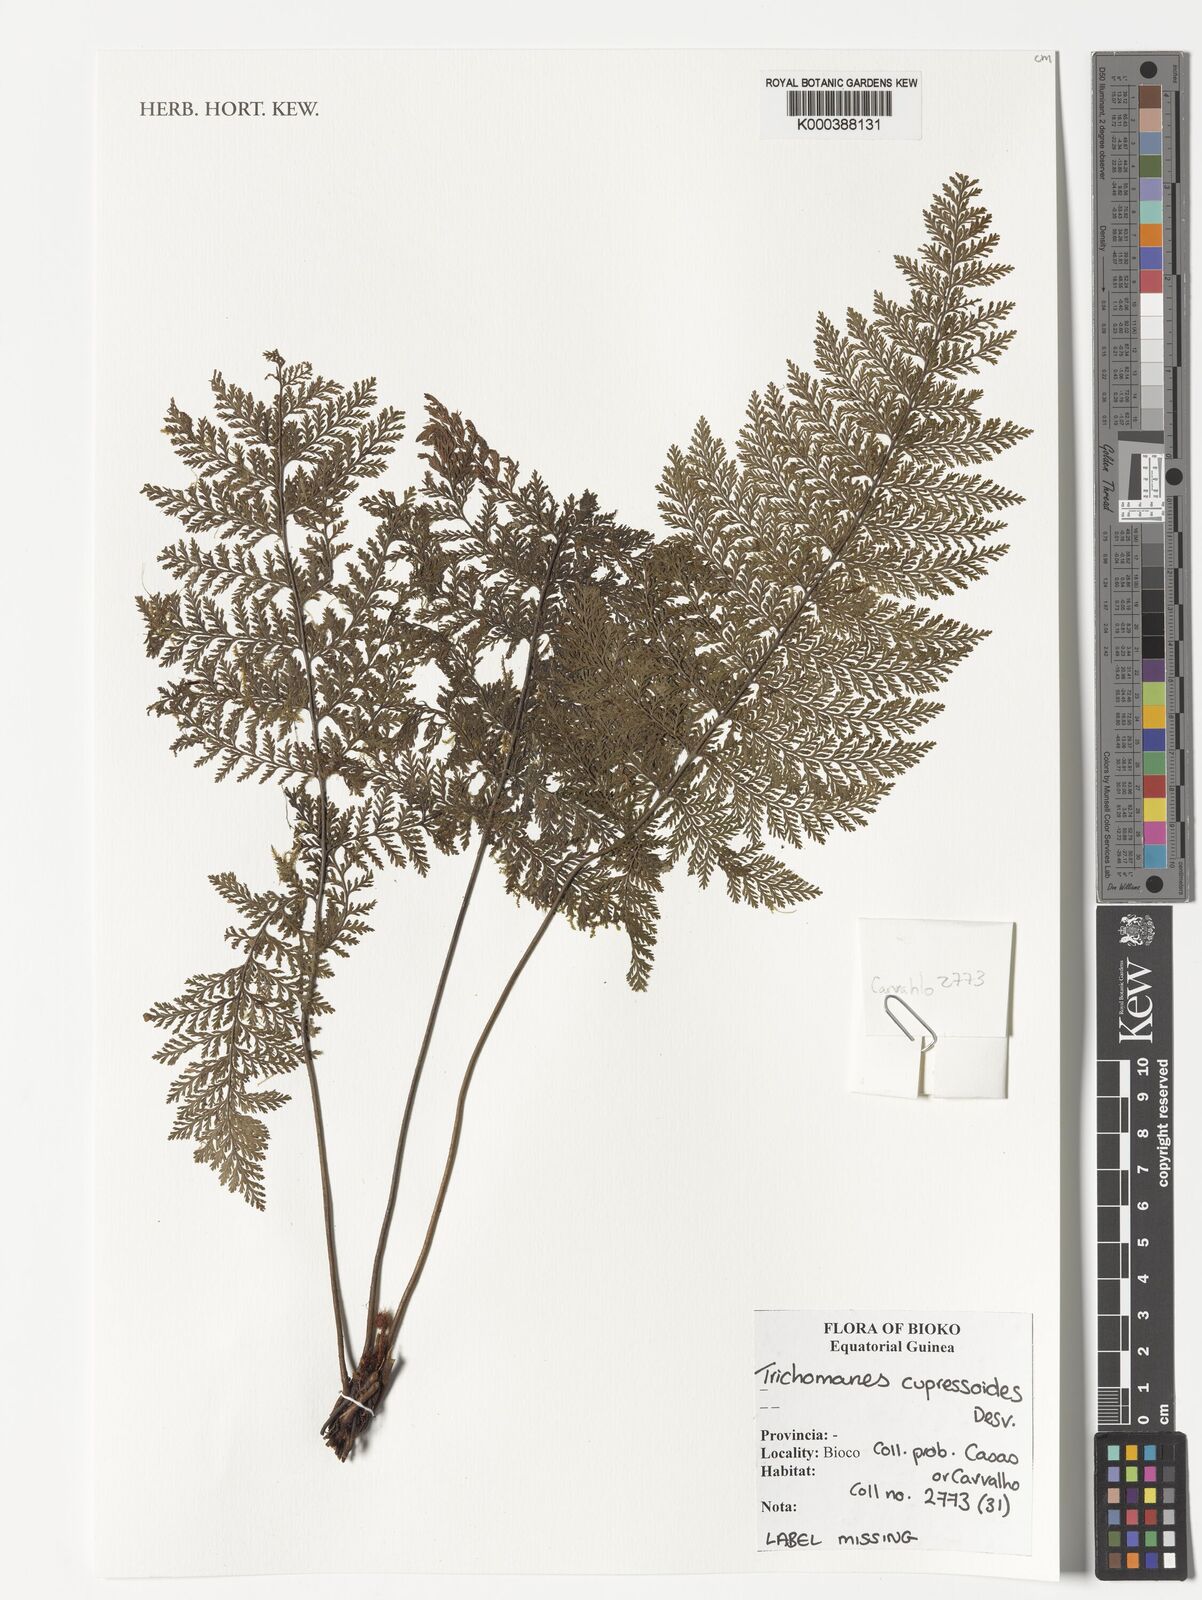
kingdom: Plantae
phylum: Tracheophyta
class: Polypodiopsida
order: Hymenophyllales
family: Hymenophyllaceae
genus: Trichomanes
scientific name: Trichomanes cupressoides
